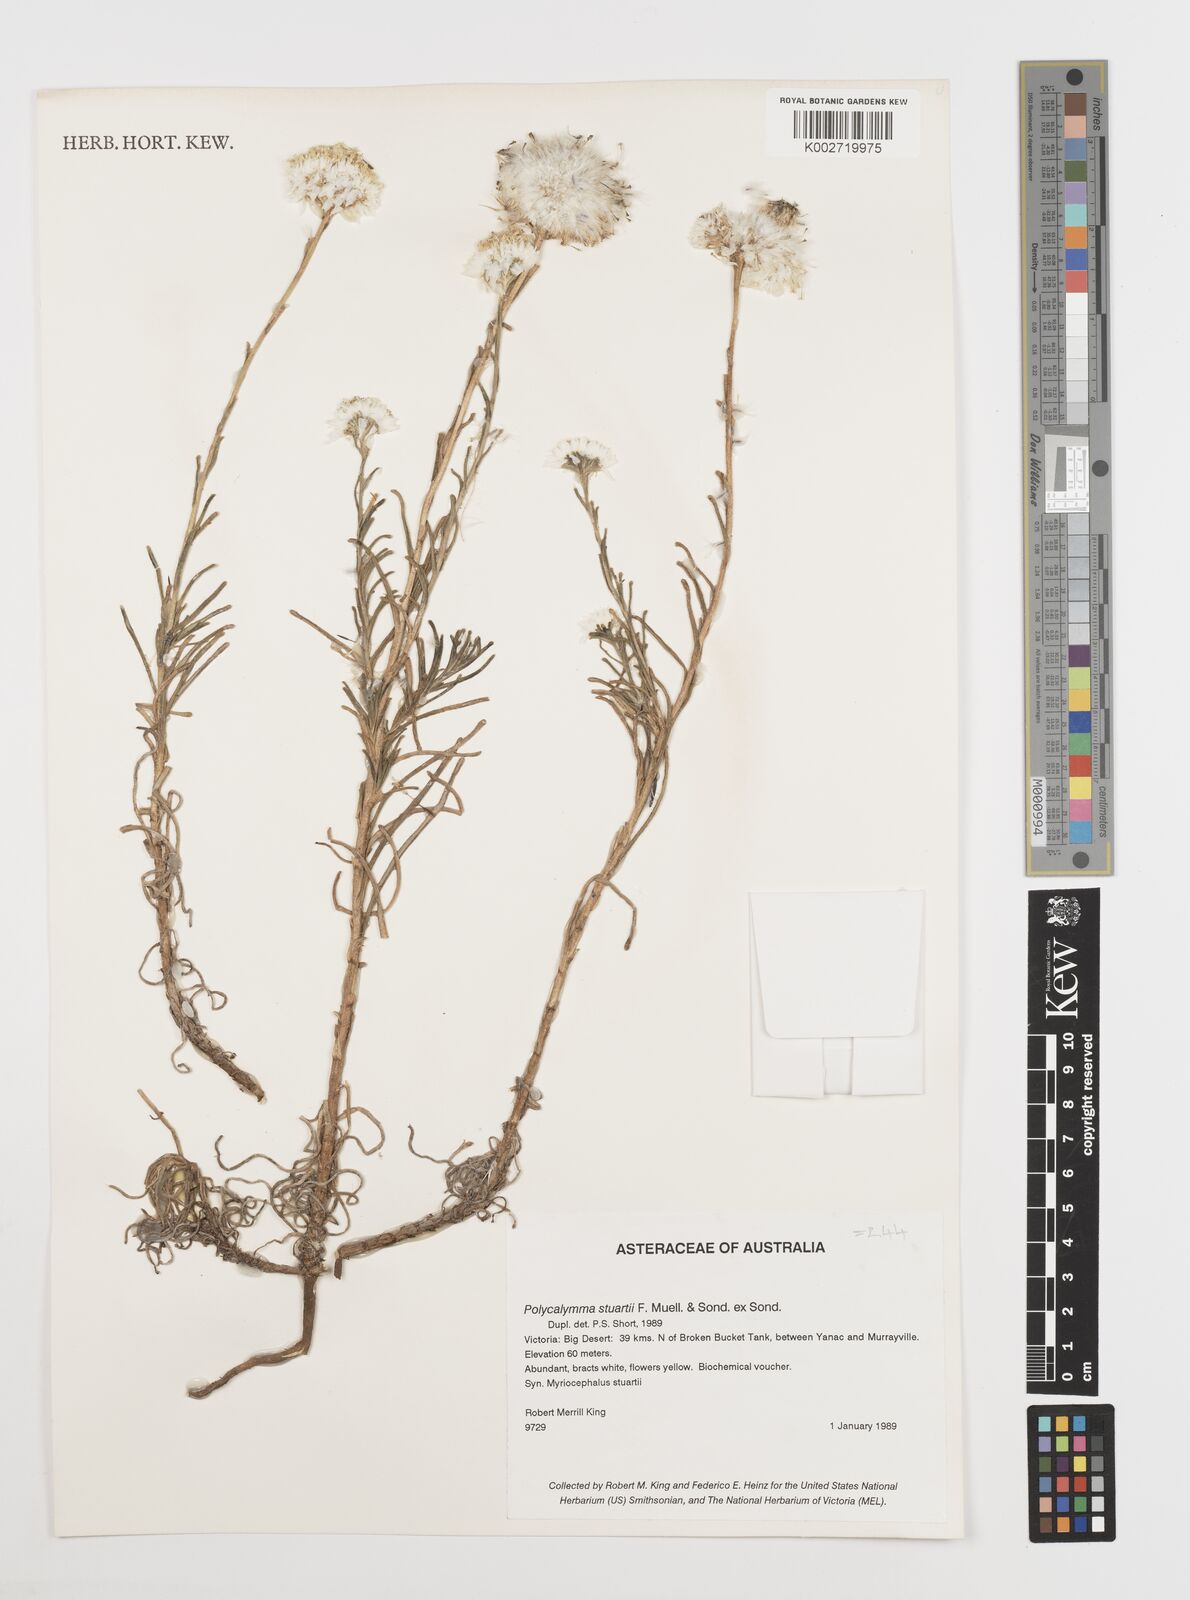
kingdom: Plantae
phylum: Tracheophyta
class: Magnoliopsida
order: Asterales
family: Asteraceae
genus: Polycalymma
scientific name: Polycalymma stuartii
